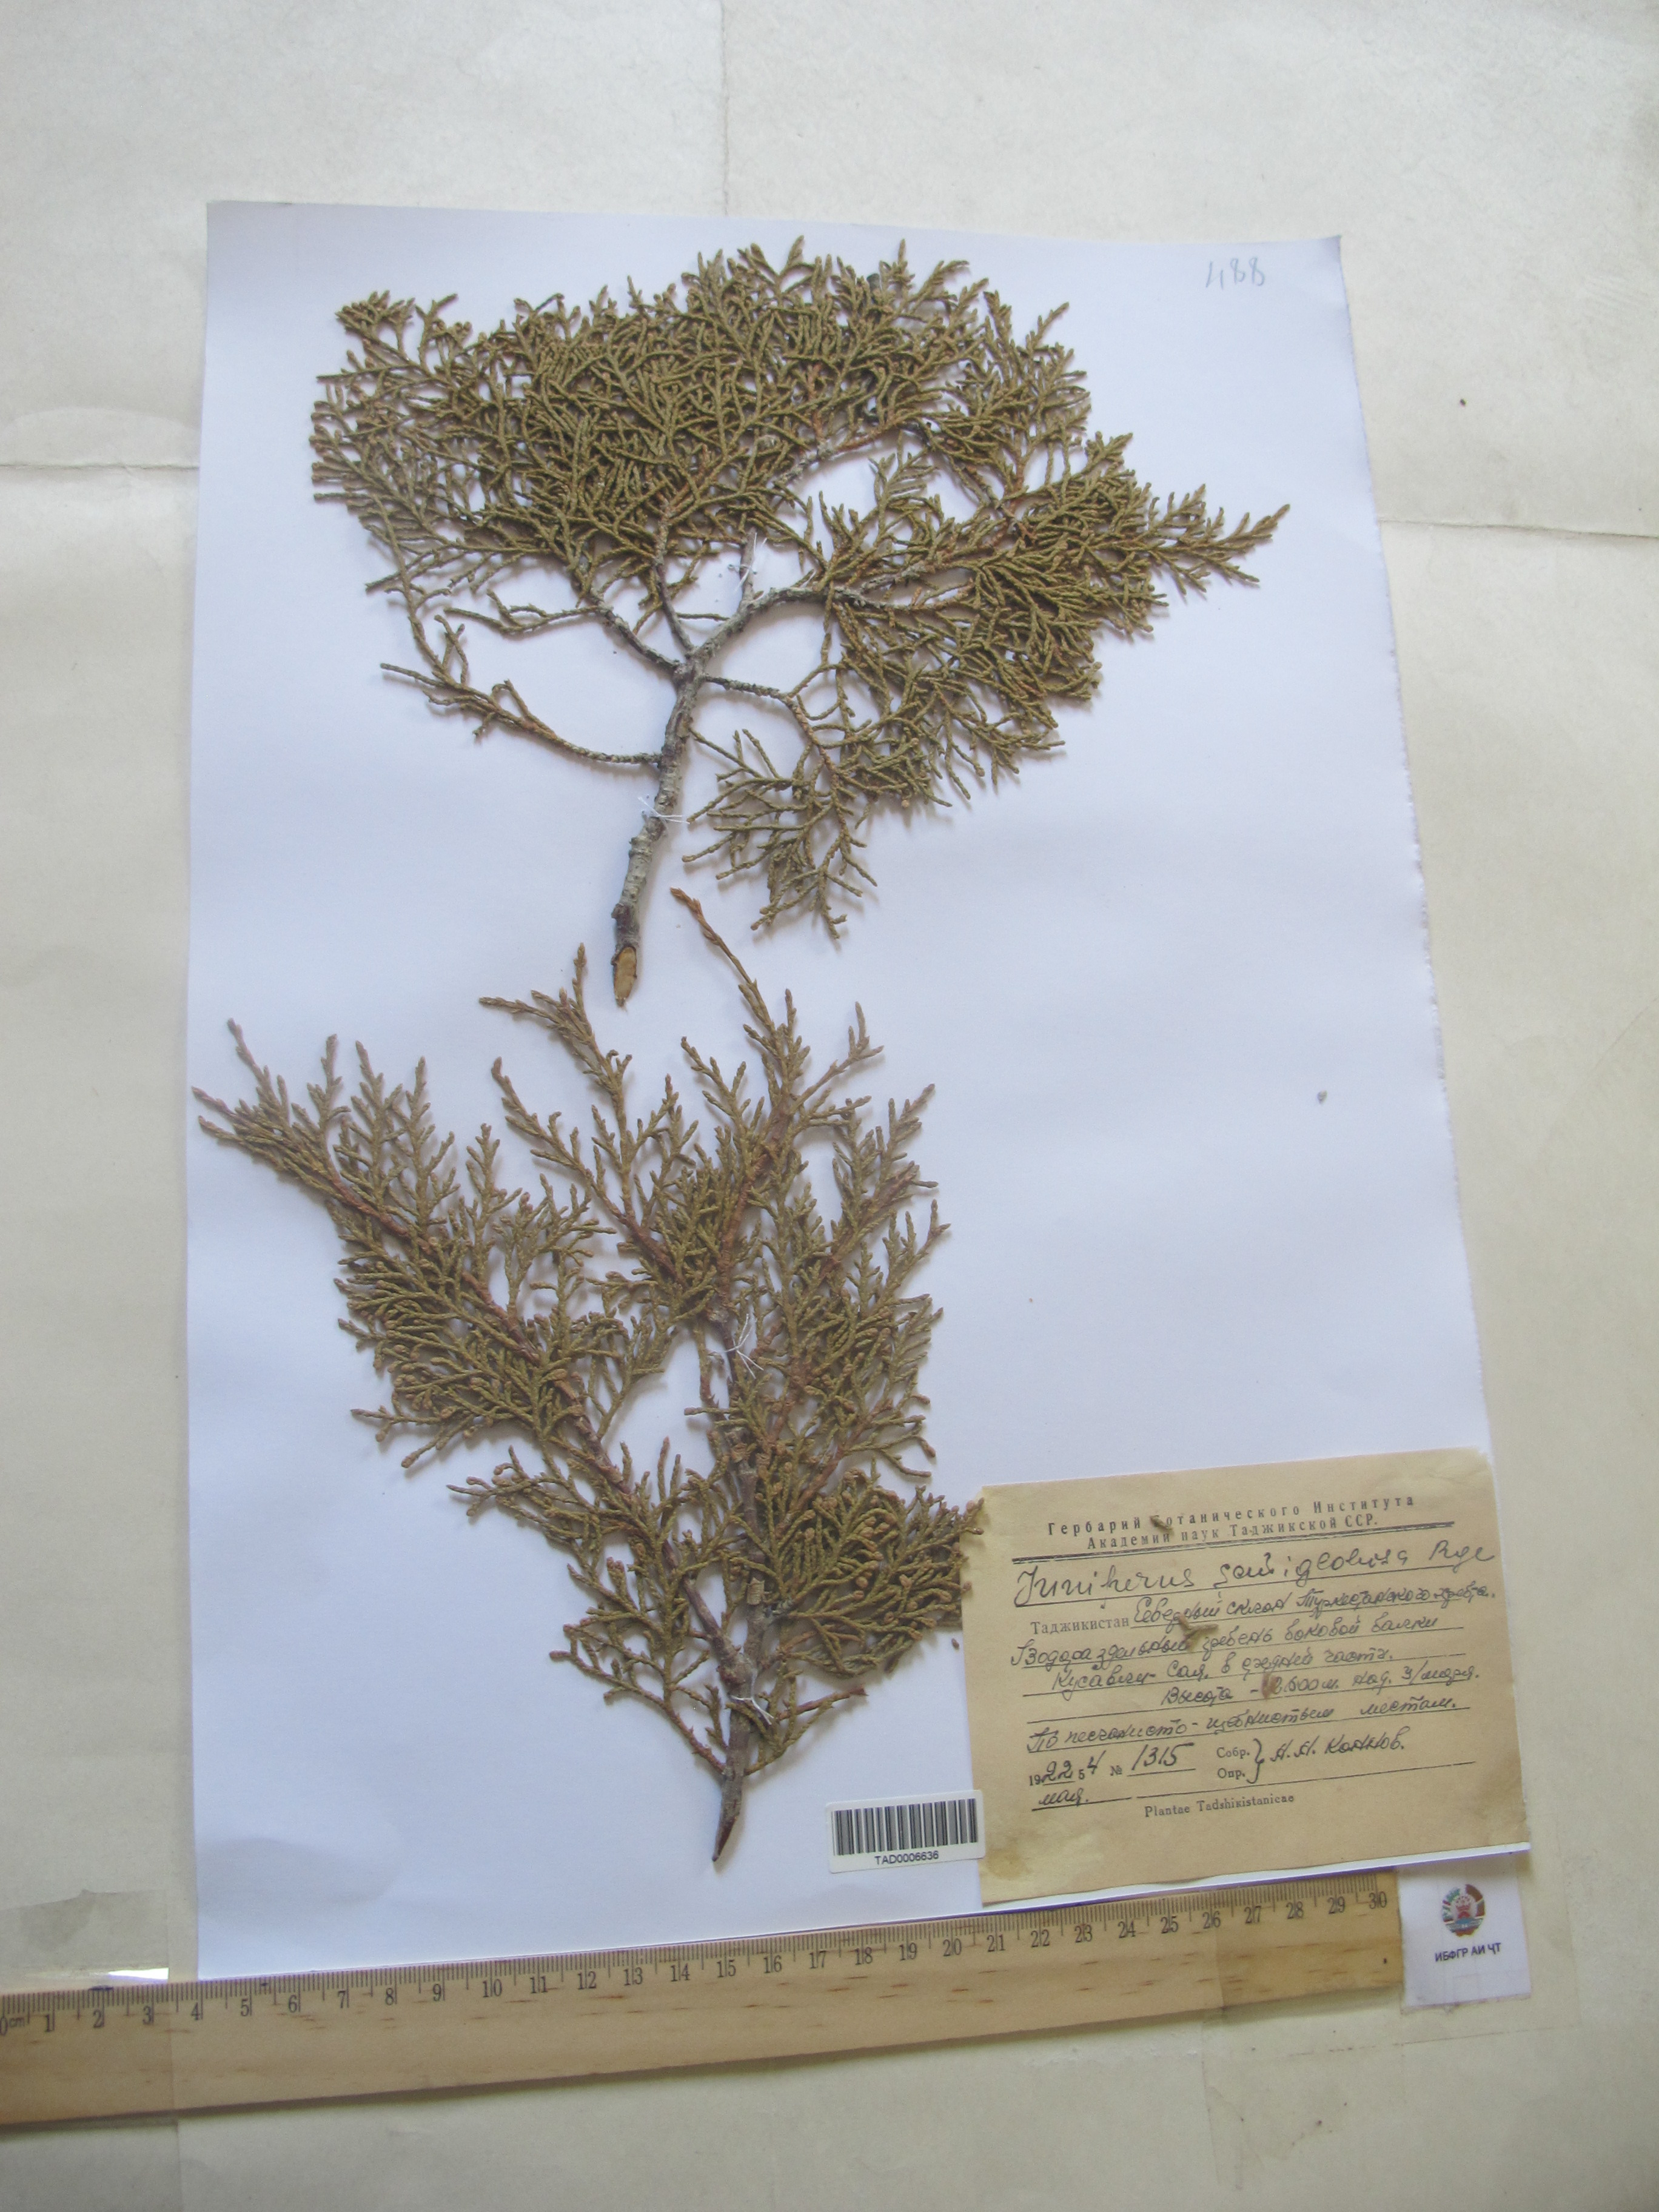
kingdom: Plantae
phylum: Tracheophyta
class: Pinopsida
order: Pinales
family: Cupressaceae
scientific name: Cupressaceae
